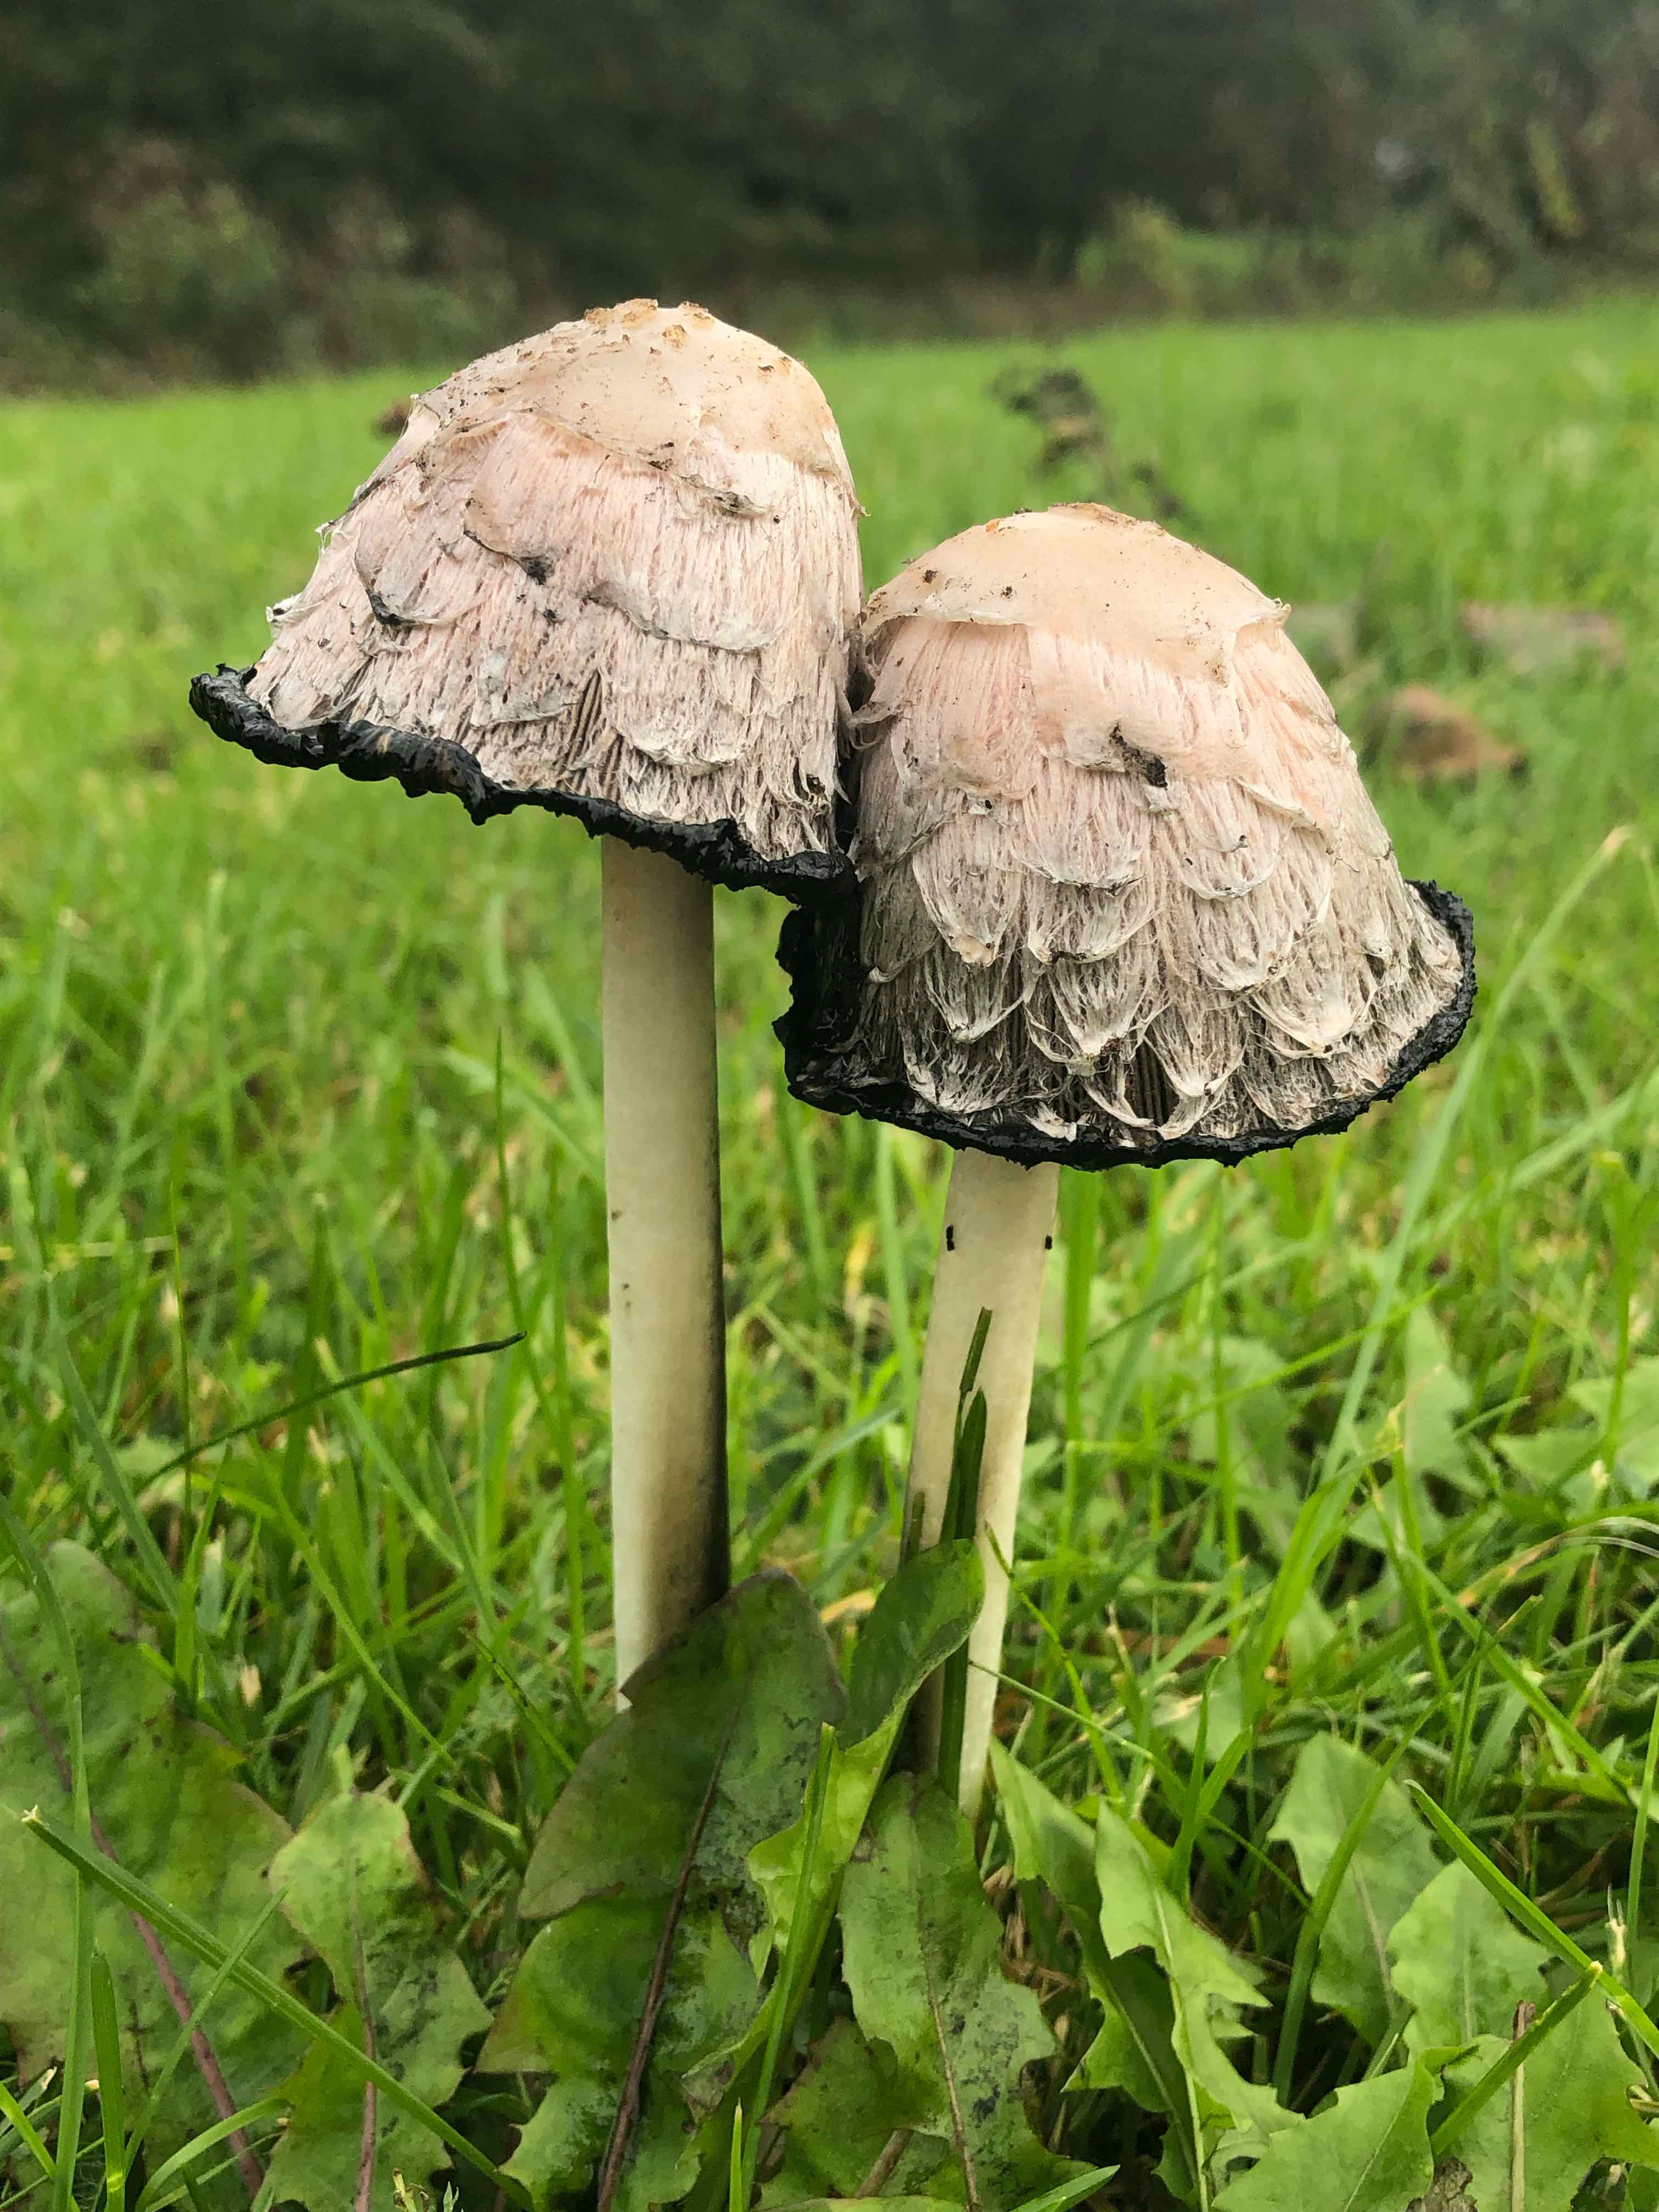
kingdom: Fungi
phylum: Basidiomycota
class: Agaricomycetes
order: Agaricales
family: Agaricaceae
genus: Coprinus
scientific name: Coprinus comatus
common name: stor parykhat
